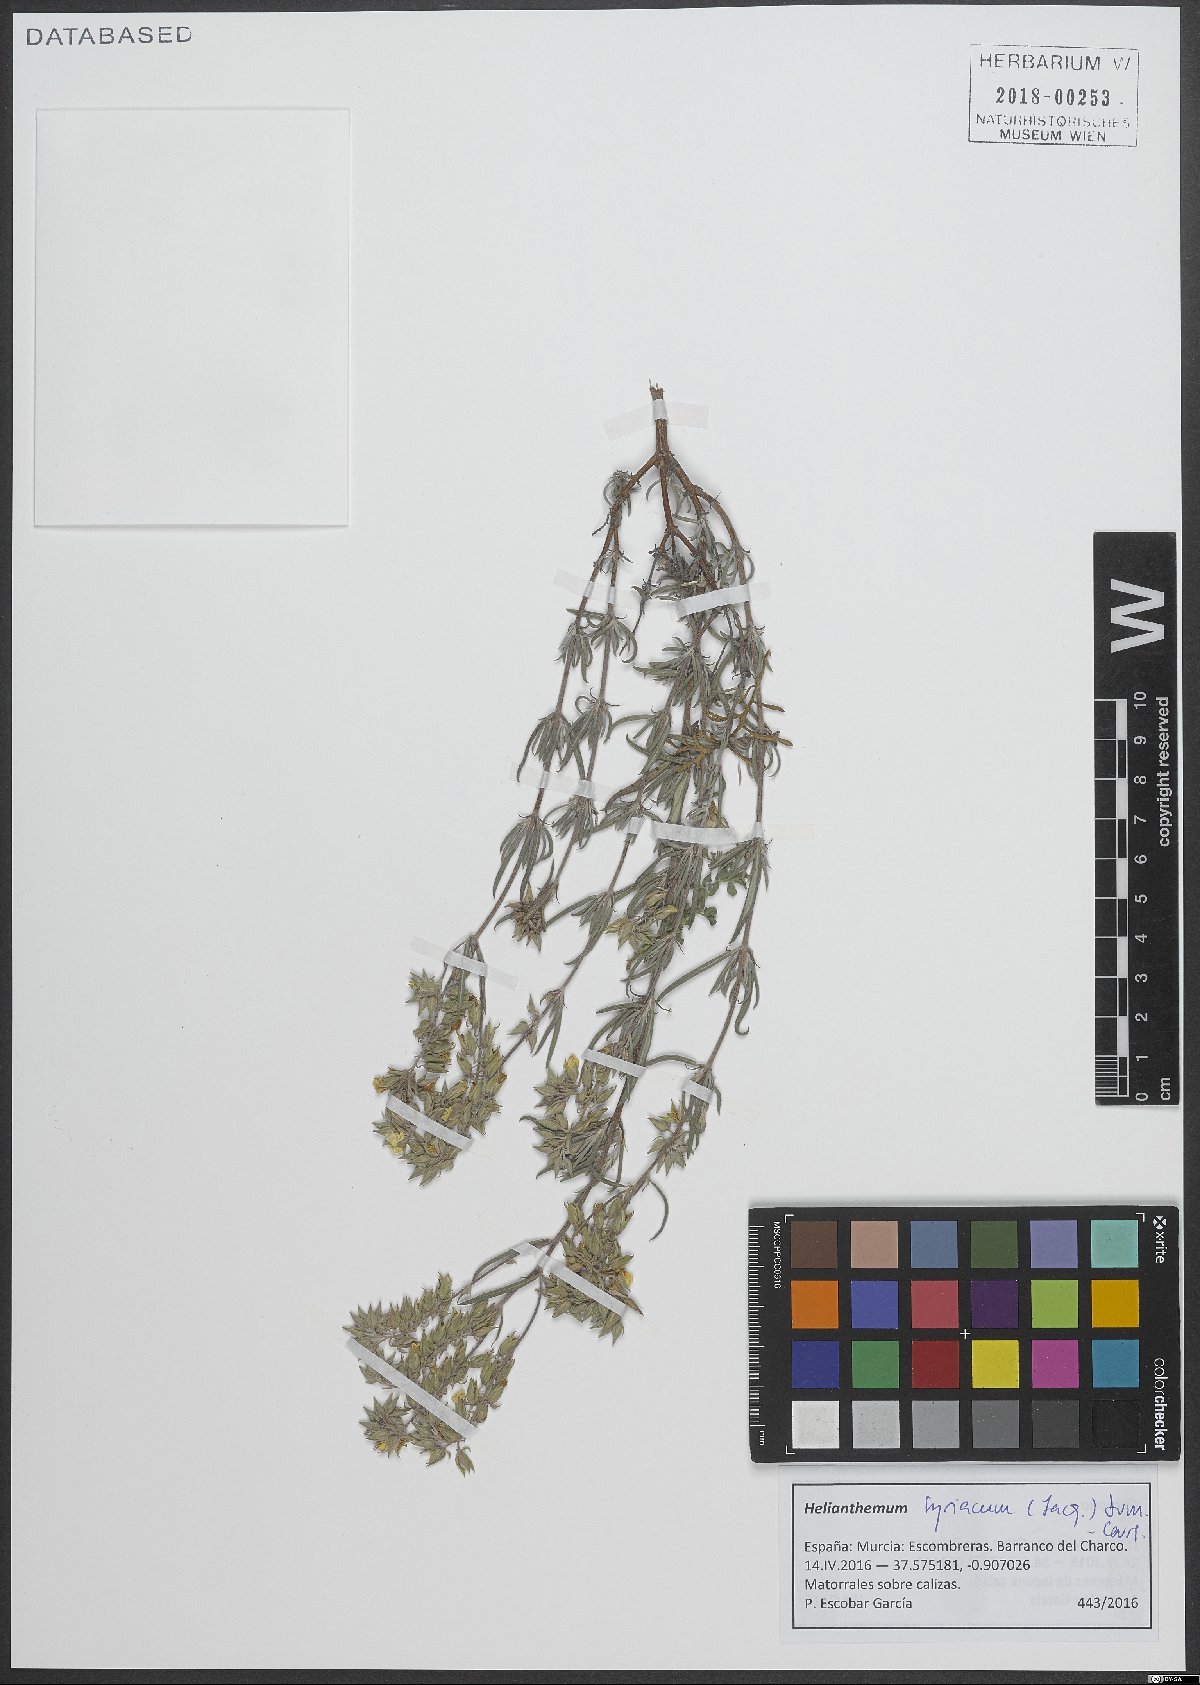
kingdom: Plantae
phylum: Tracheophyta
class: Magnoliopsida
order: Malvales
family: Cistaceae
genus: Helianthemum
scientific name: Helianthemum syriacum
